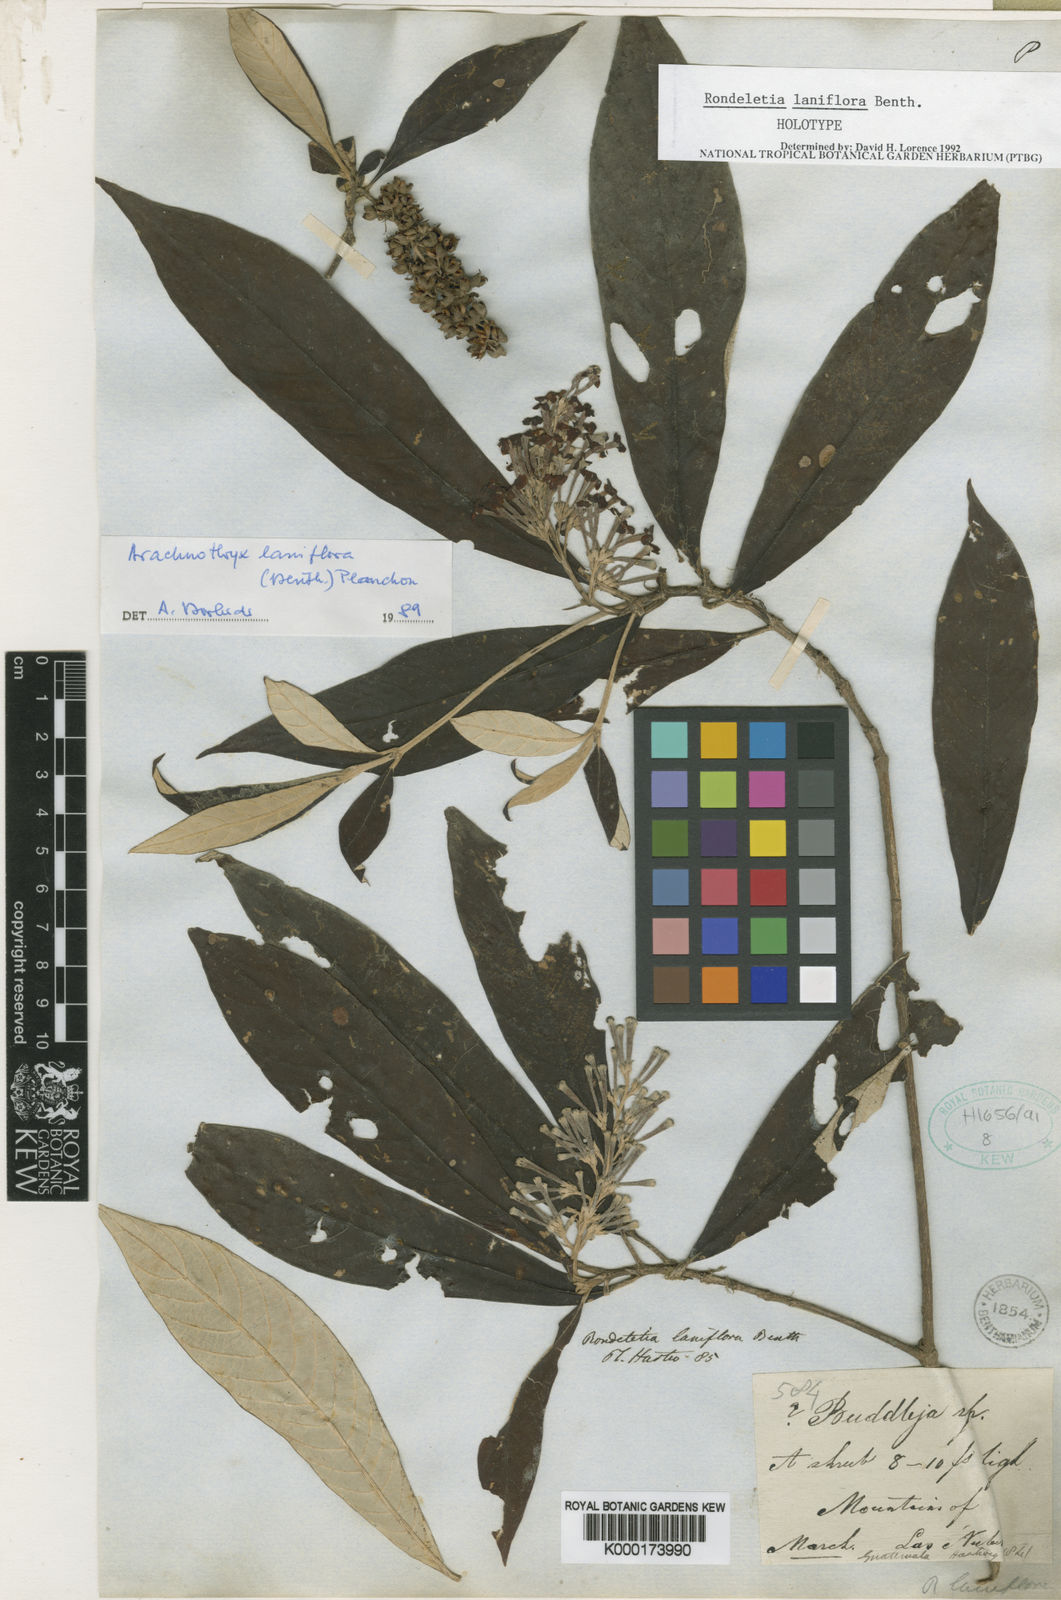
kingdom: Plantae
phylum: Tracheophyta
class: Magnoliopsida
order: Gentianales
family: Rubiaceae
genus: Arachnothryx
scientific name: Arachnothryx laniflora
